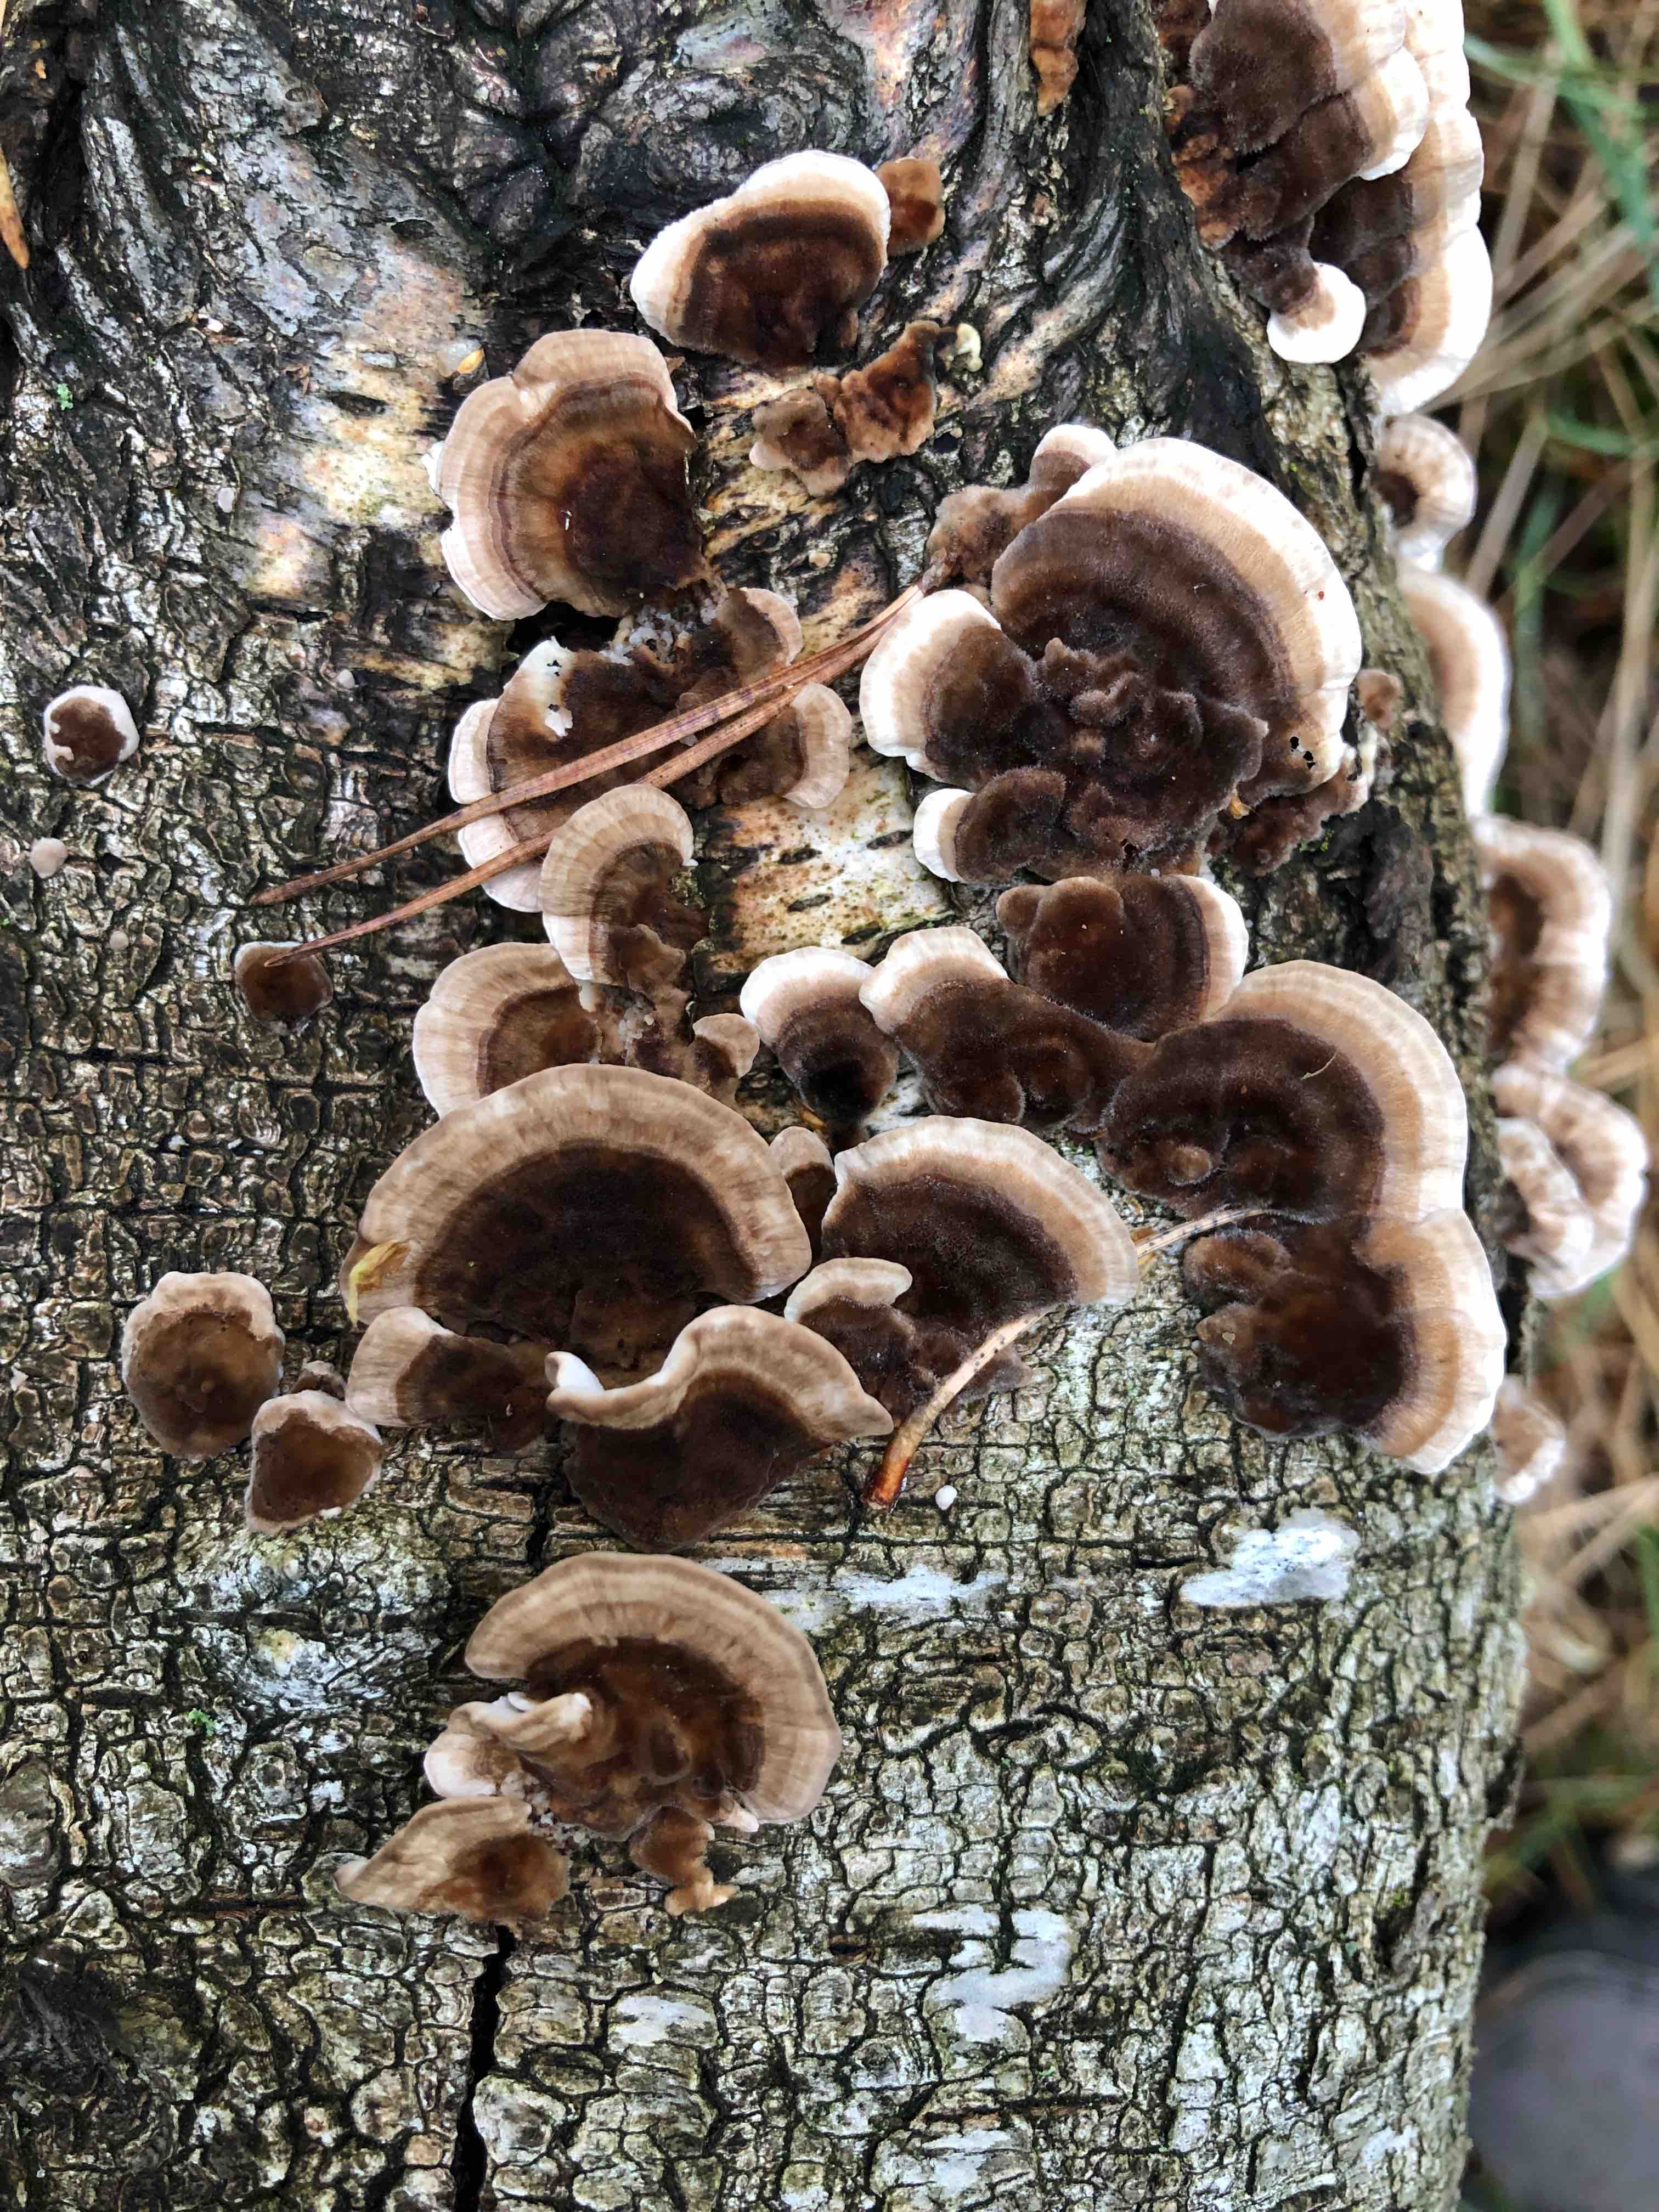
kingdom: Fungi
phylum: Basidiomycota
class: Agaricomycetes
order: Polyporales
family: Polyporaceae
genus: Trametes
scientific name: Trametes versicolor
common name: broget læderporesvamp
